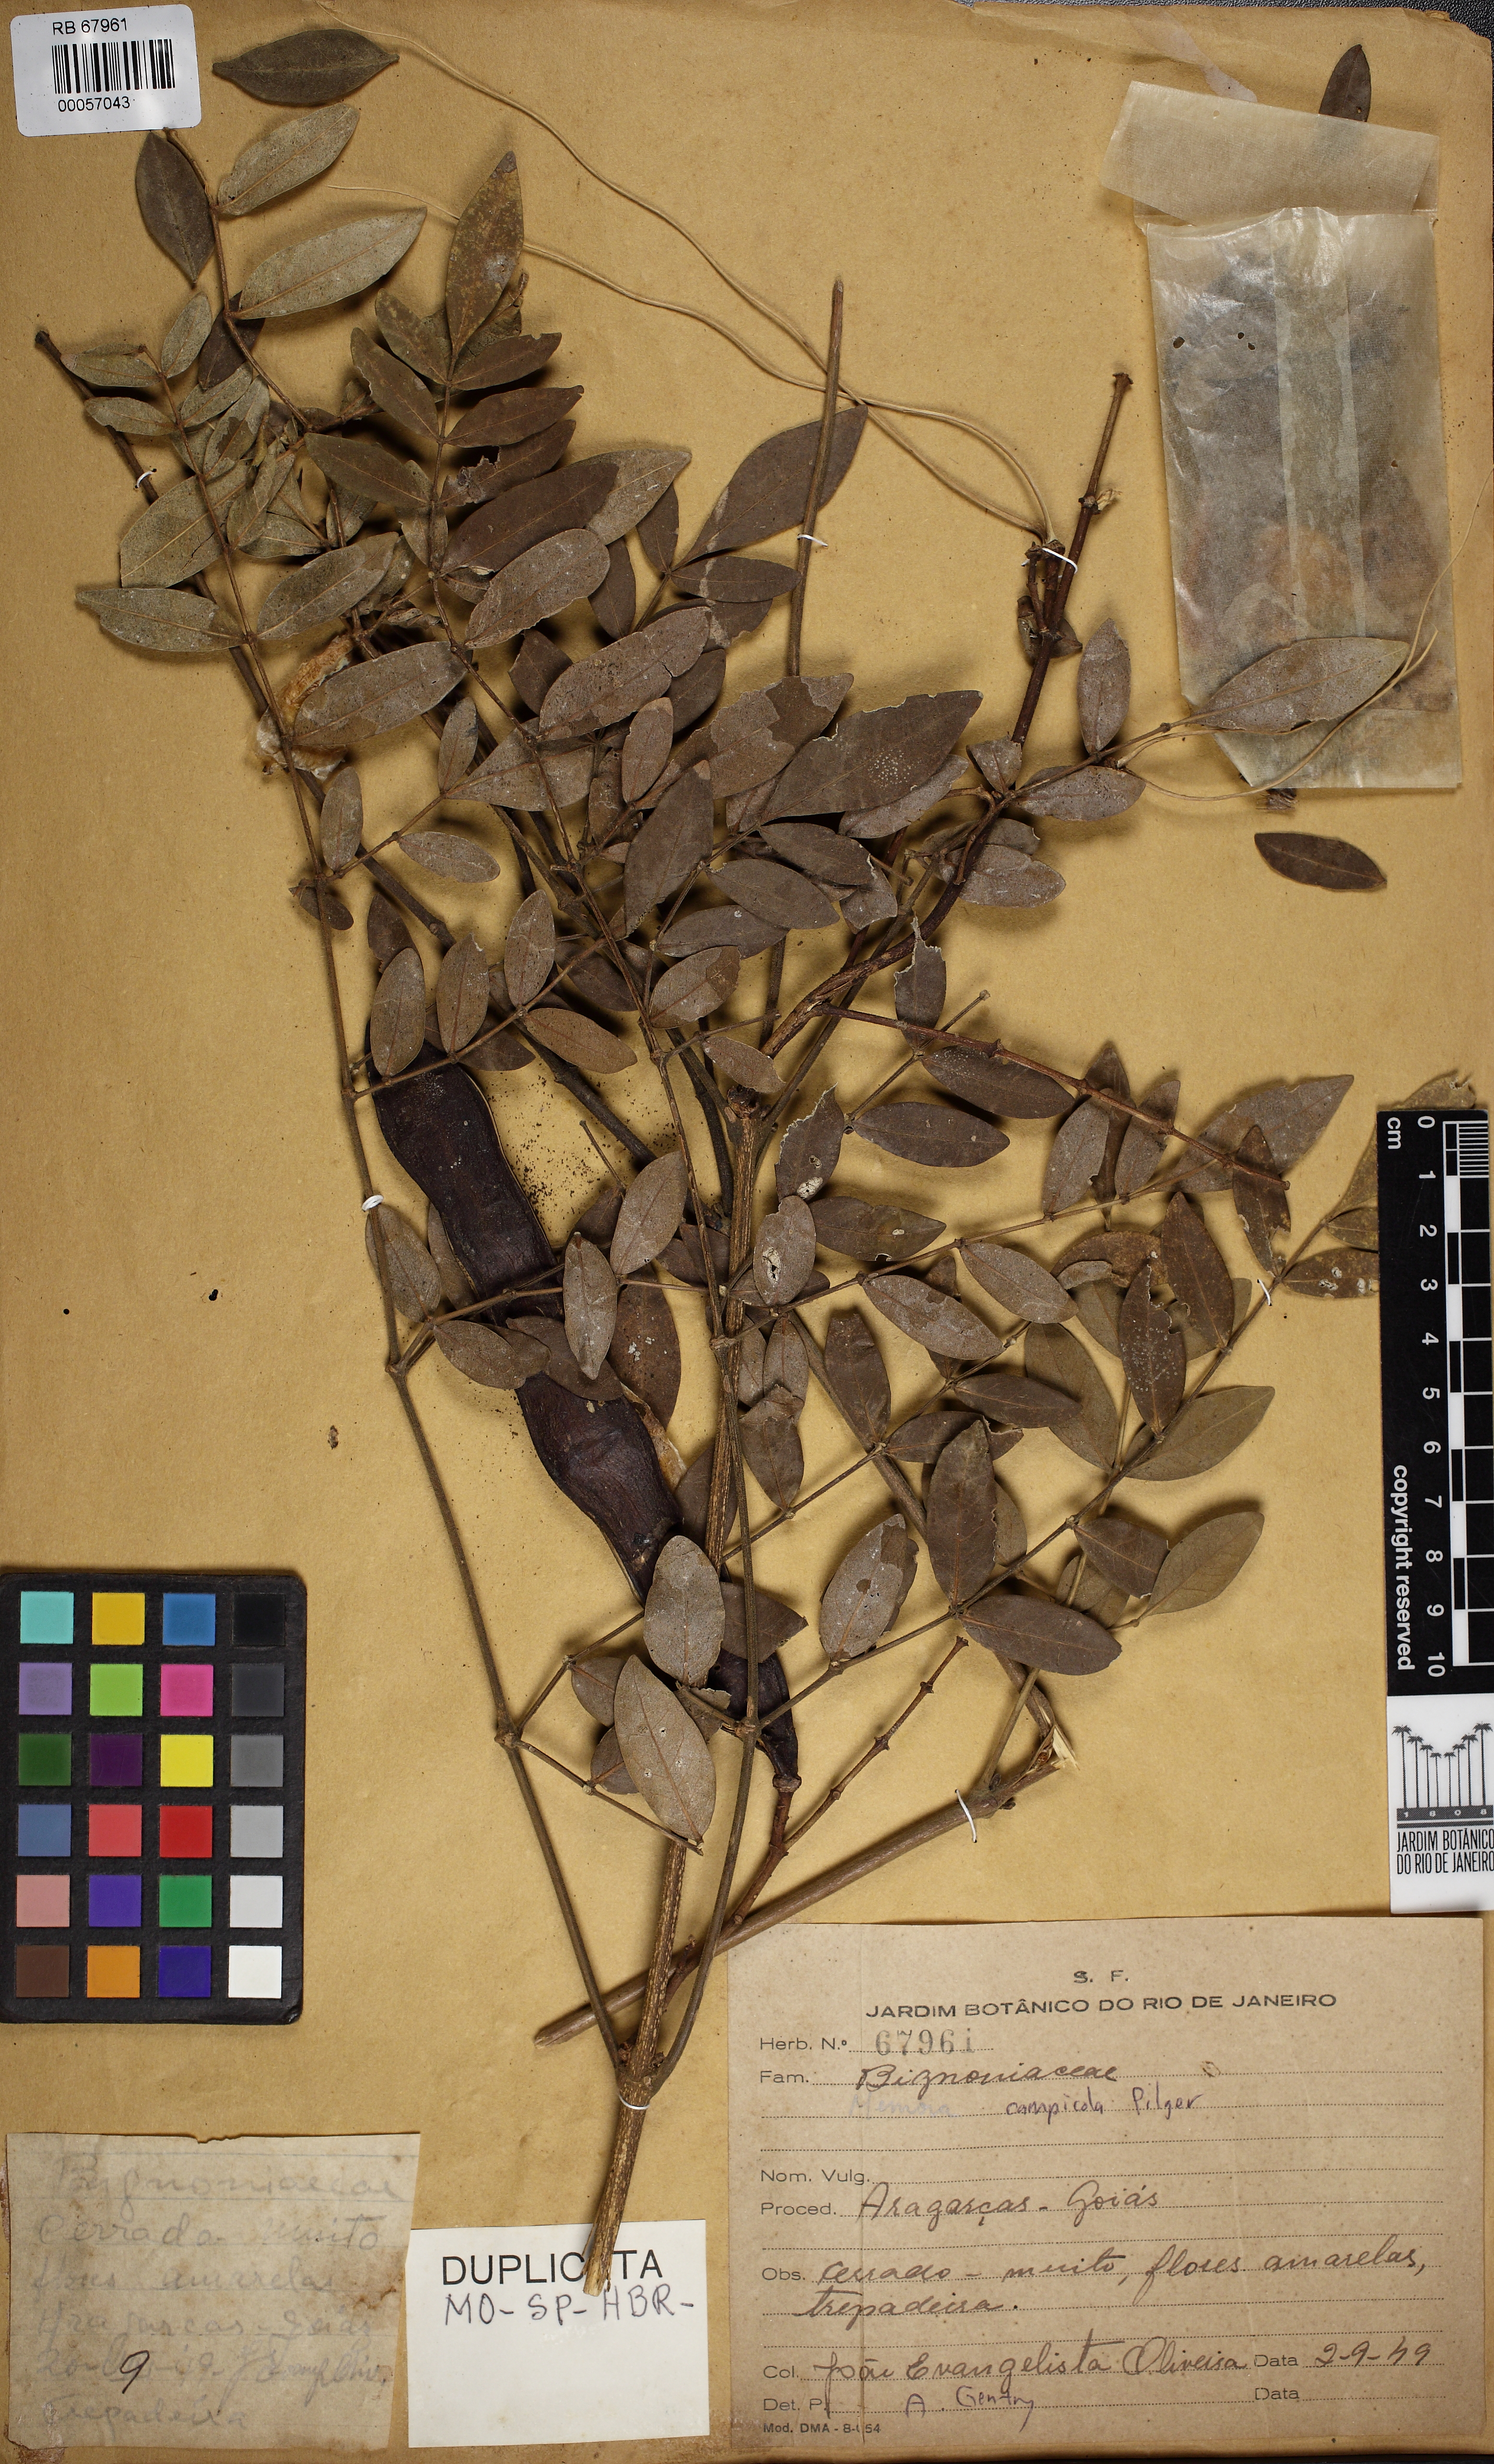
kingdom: Plantae
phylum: Tracheophyta
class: Magnoliopsida
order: Lamiales
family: Bignoniaceae
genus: Adenocalymma
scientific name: Adenocalymma nodosum
